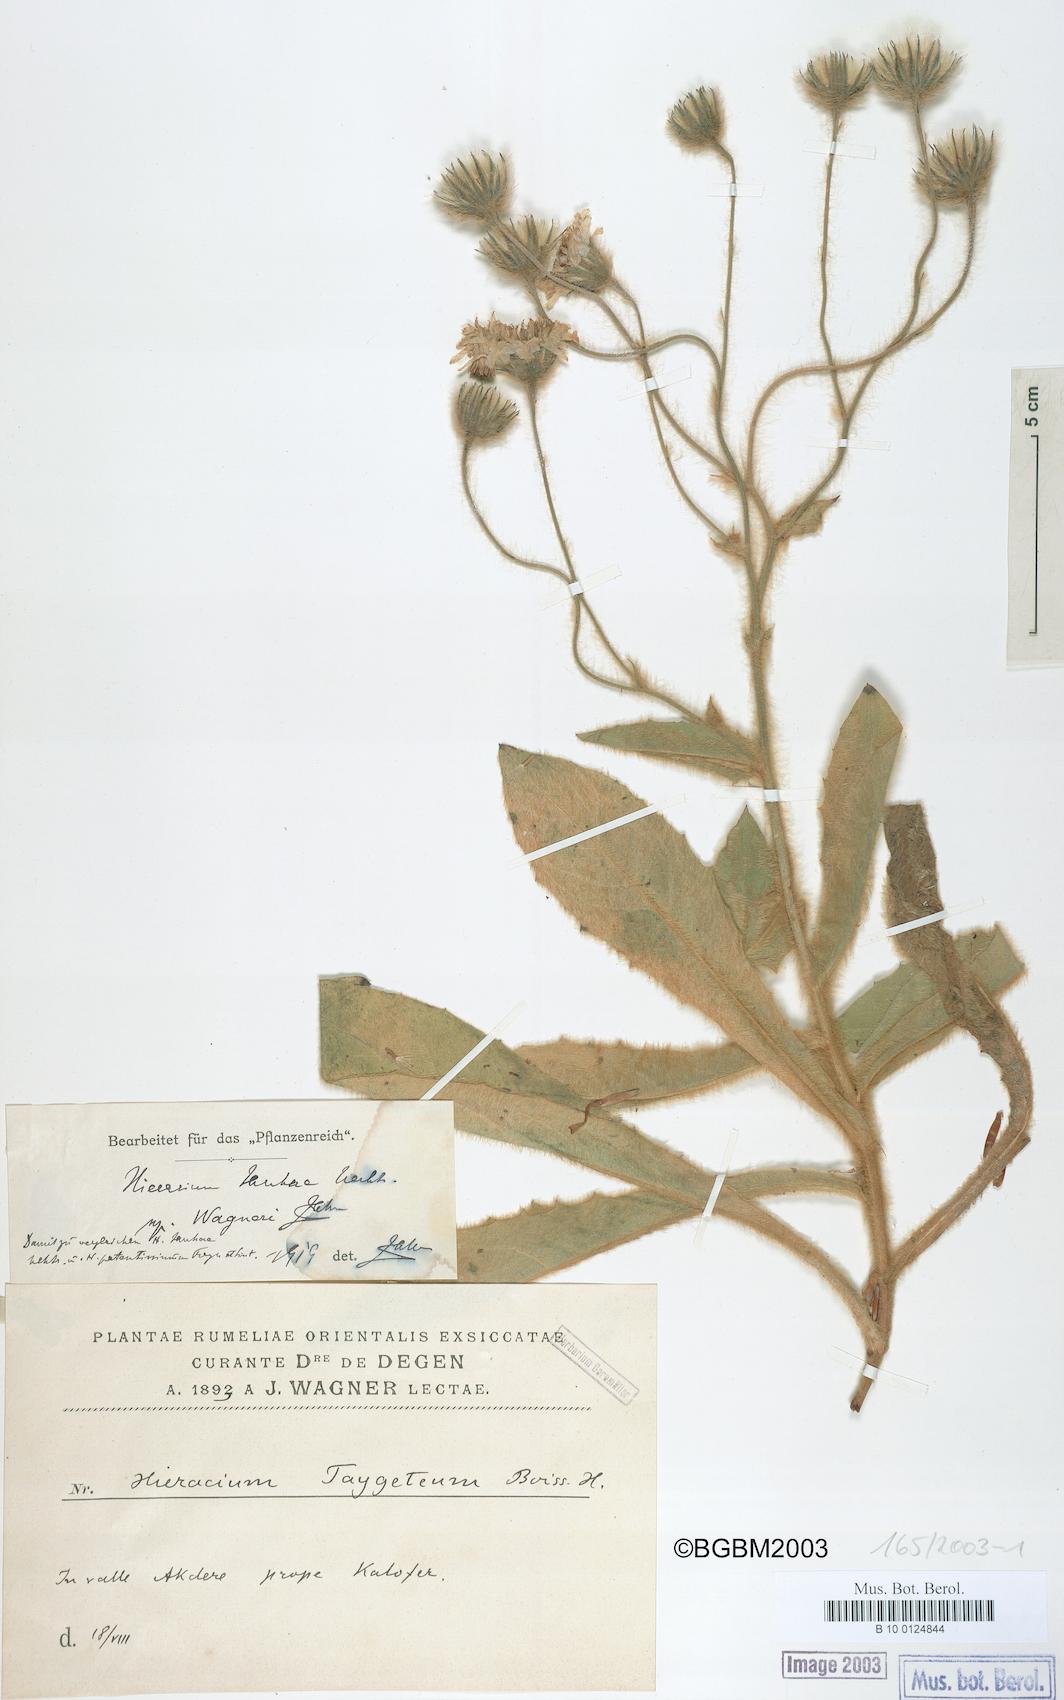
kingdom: Plantae
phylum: Tracheophyta
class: Magnoliopsida
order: Asterales
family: Asteraceae
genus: Hieracium
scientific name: Hieracium jankae
